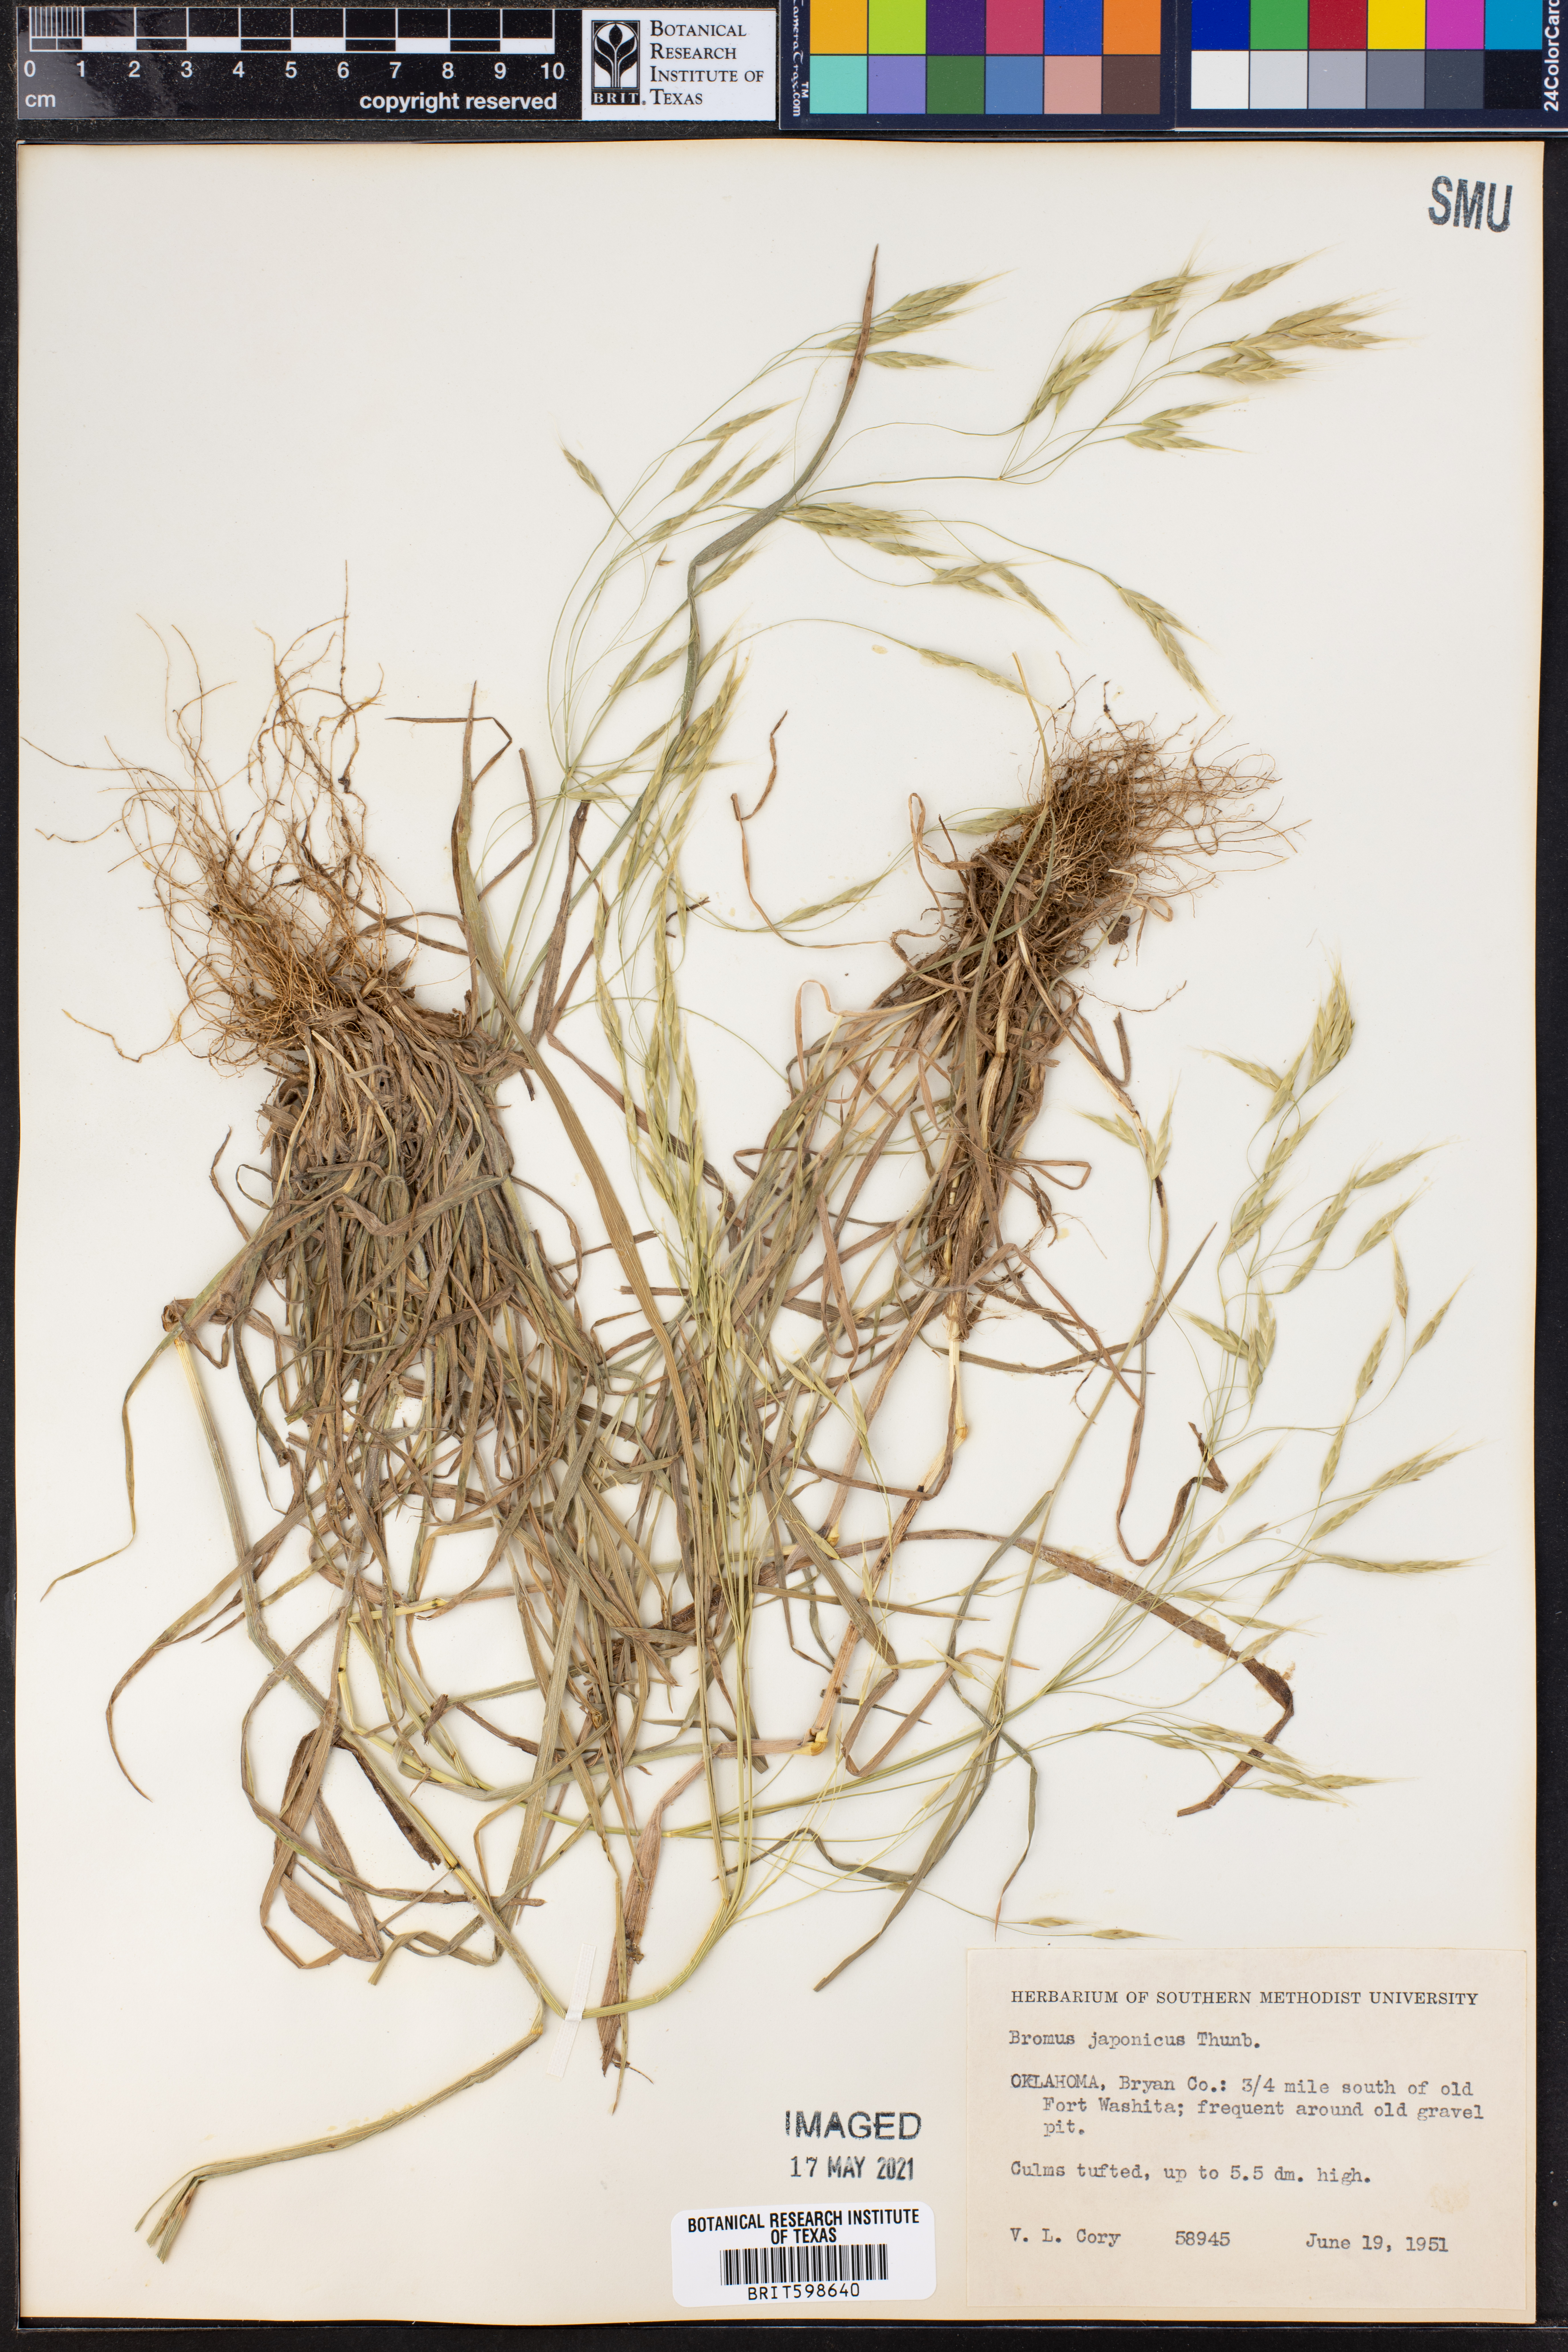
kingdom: Plantae
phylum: Tracheophyta
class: Liliopsida
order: Poales
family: Poaceae
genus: Bromus
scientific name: Bromus japonicus
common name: Japanese brome
